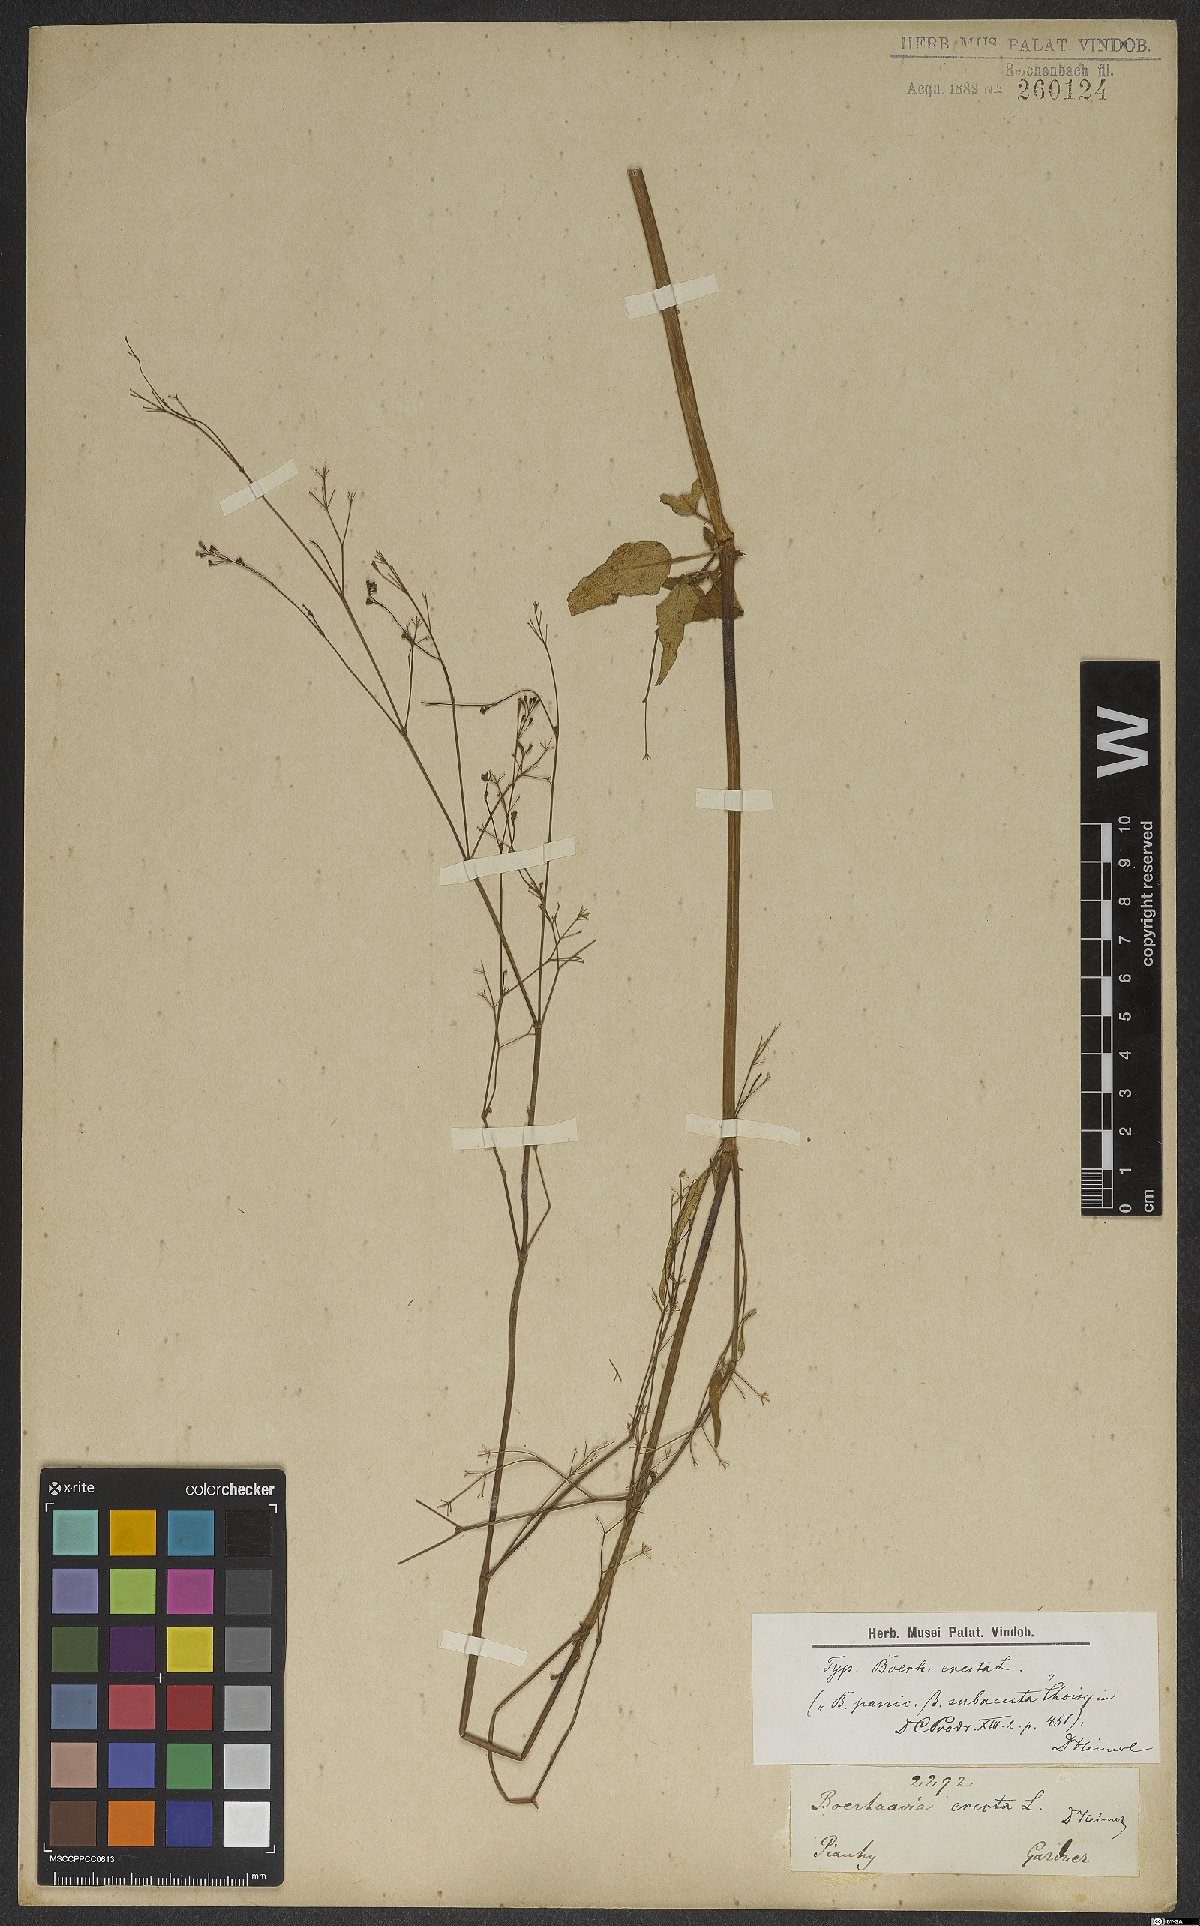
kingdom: Plantae
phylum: Tracheophyta
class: Magnoliopsida
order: Caryophyllales
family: Nyctaginaceae
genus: Boerhavia
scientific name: Boerhavia erecta
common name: Erect spiderling
